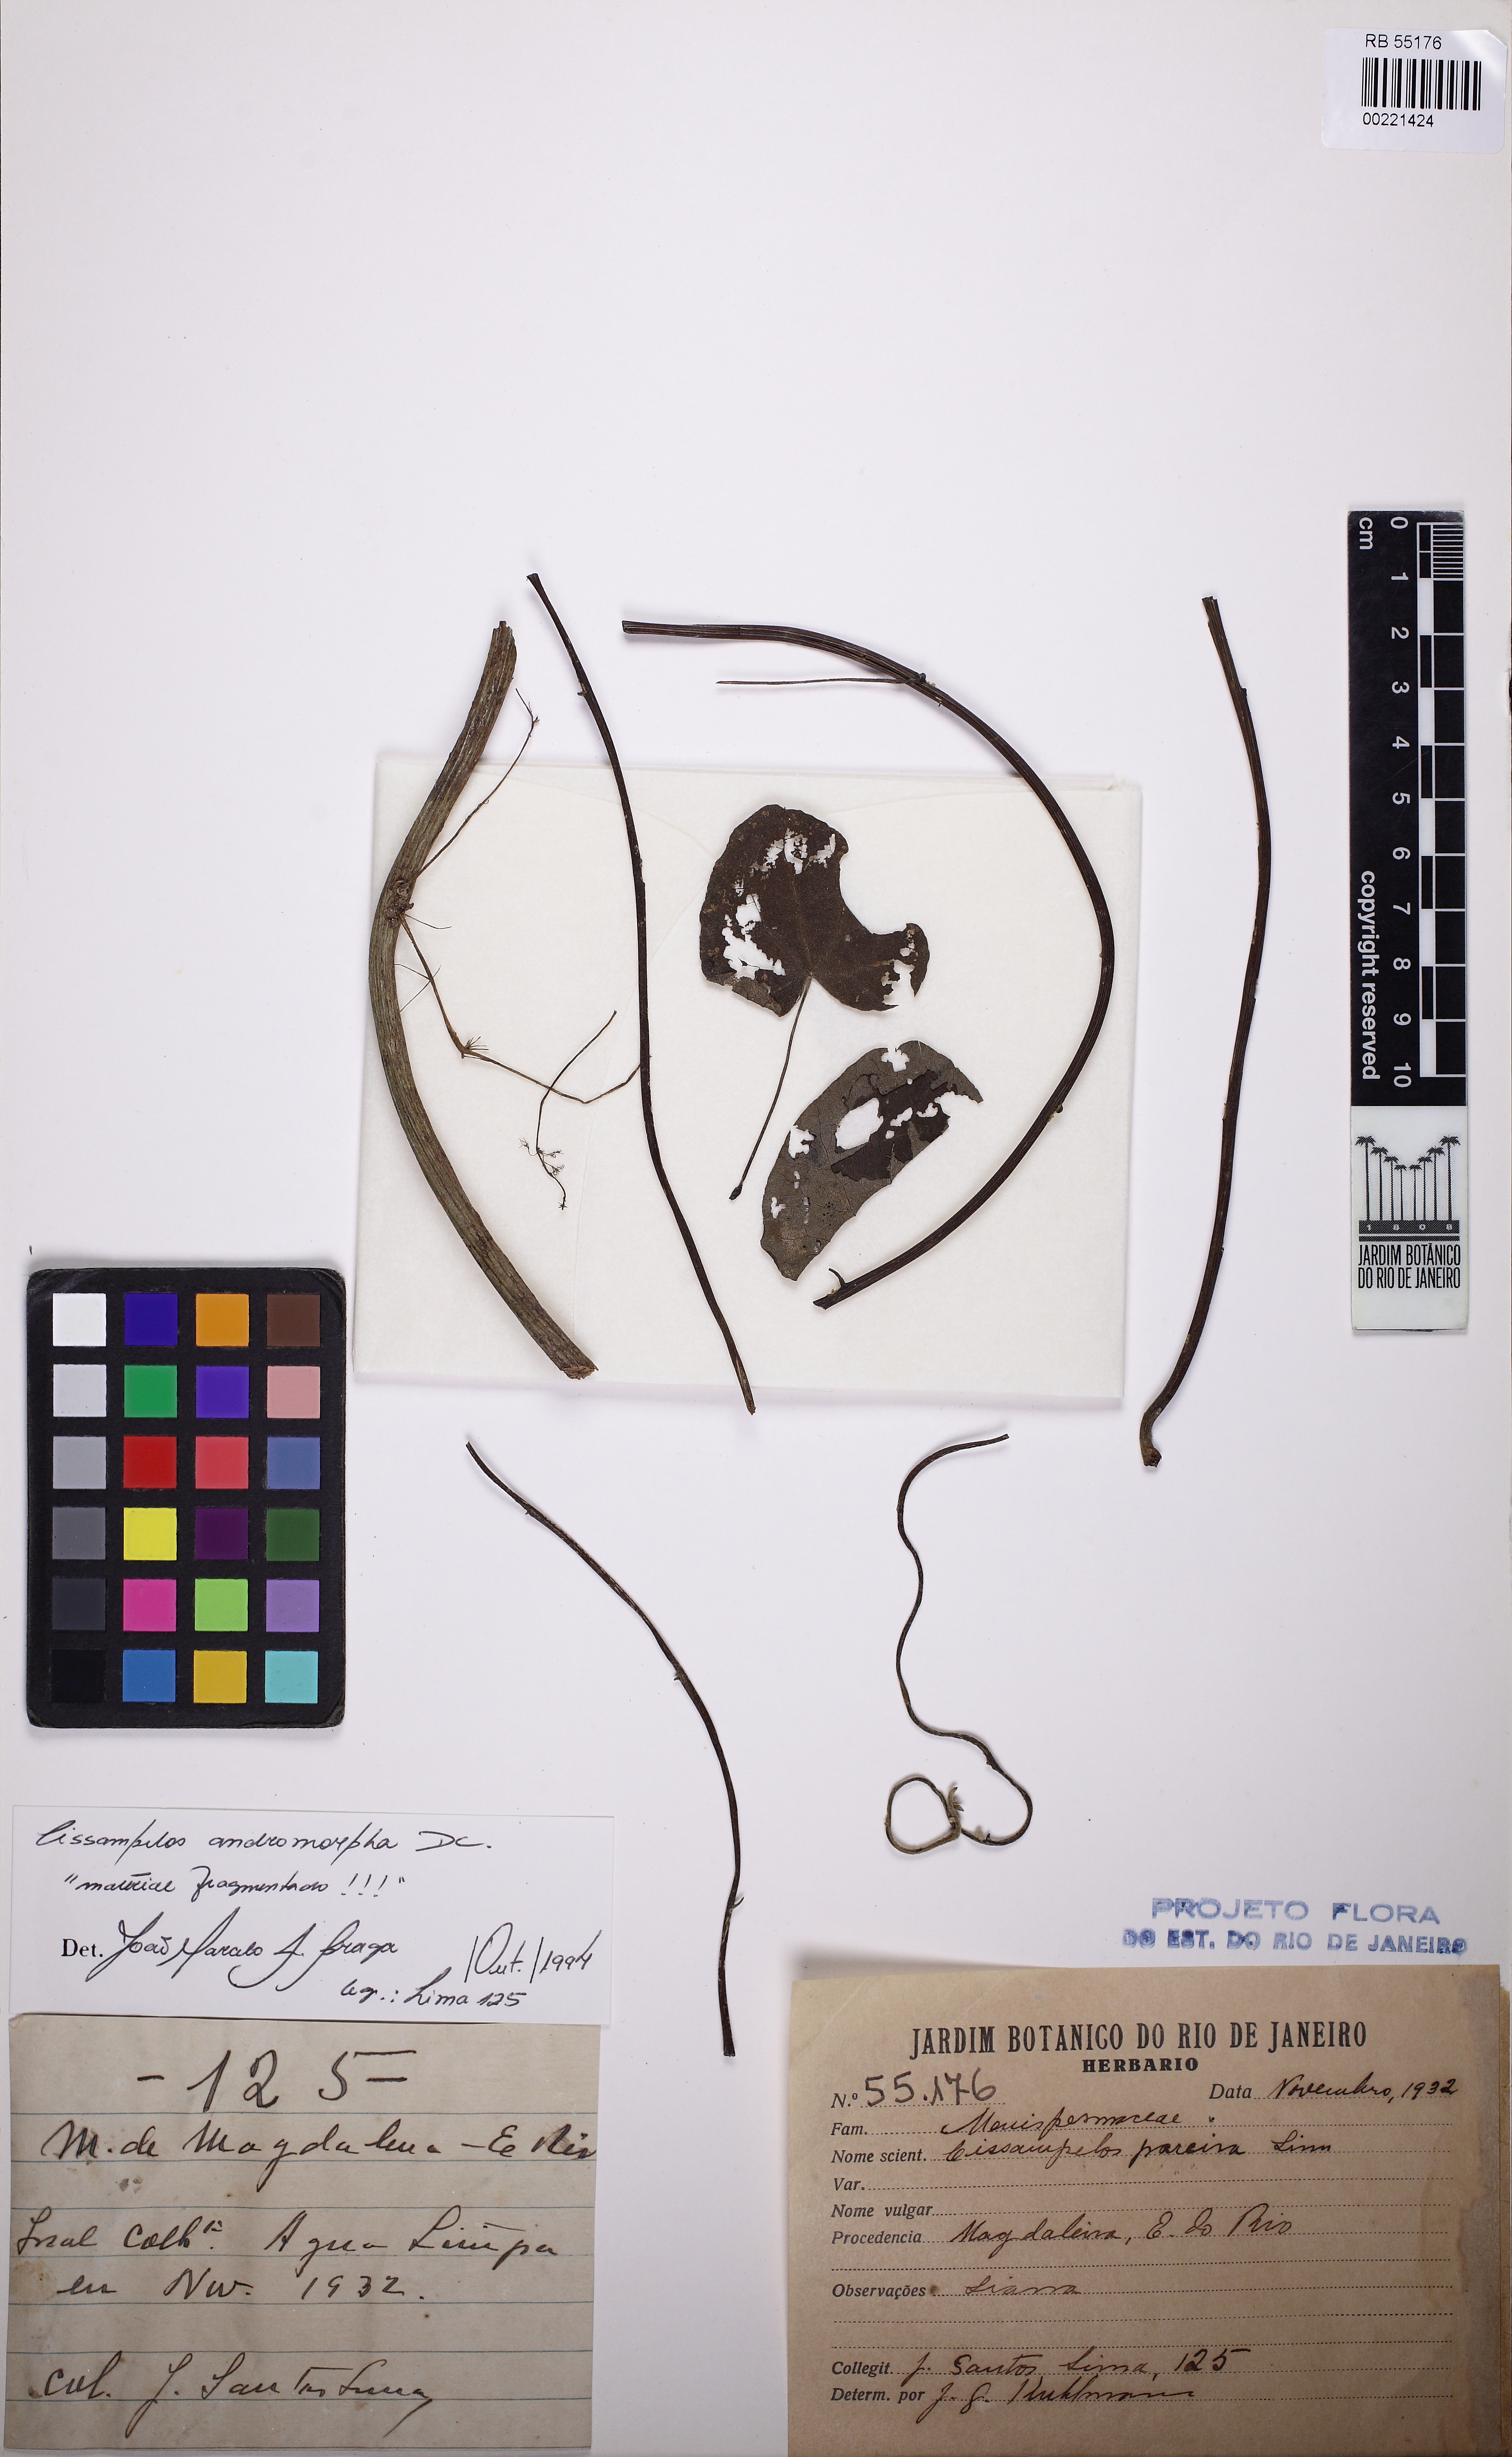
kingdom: Plantae
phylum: Tracheophyta
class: Magnoliopsida
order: Ranunculales
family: Menispermaceae
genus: Cissampelos
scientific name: Cissampelos andromorpha
